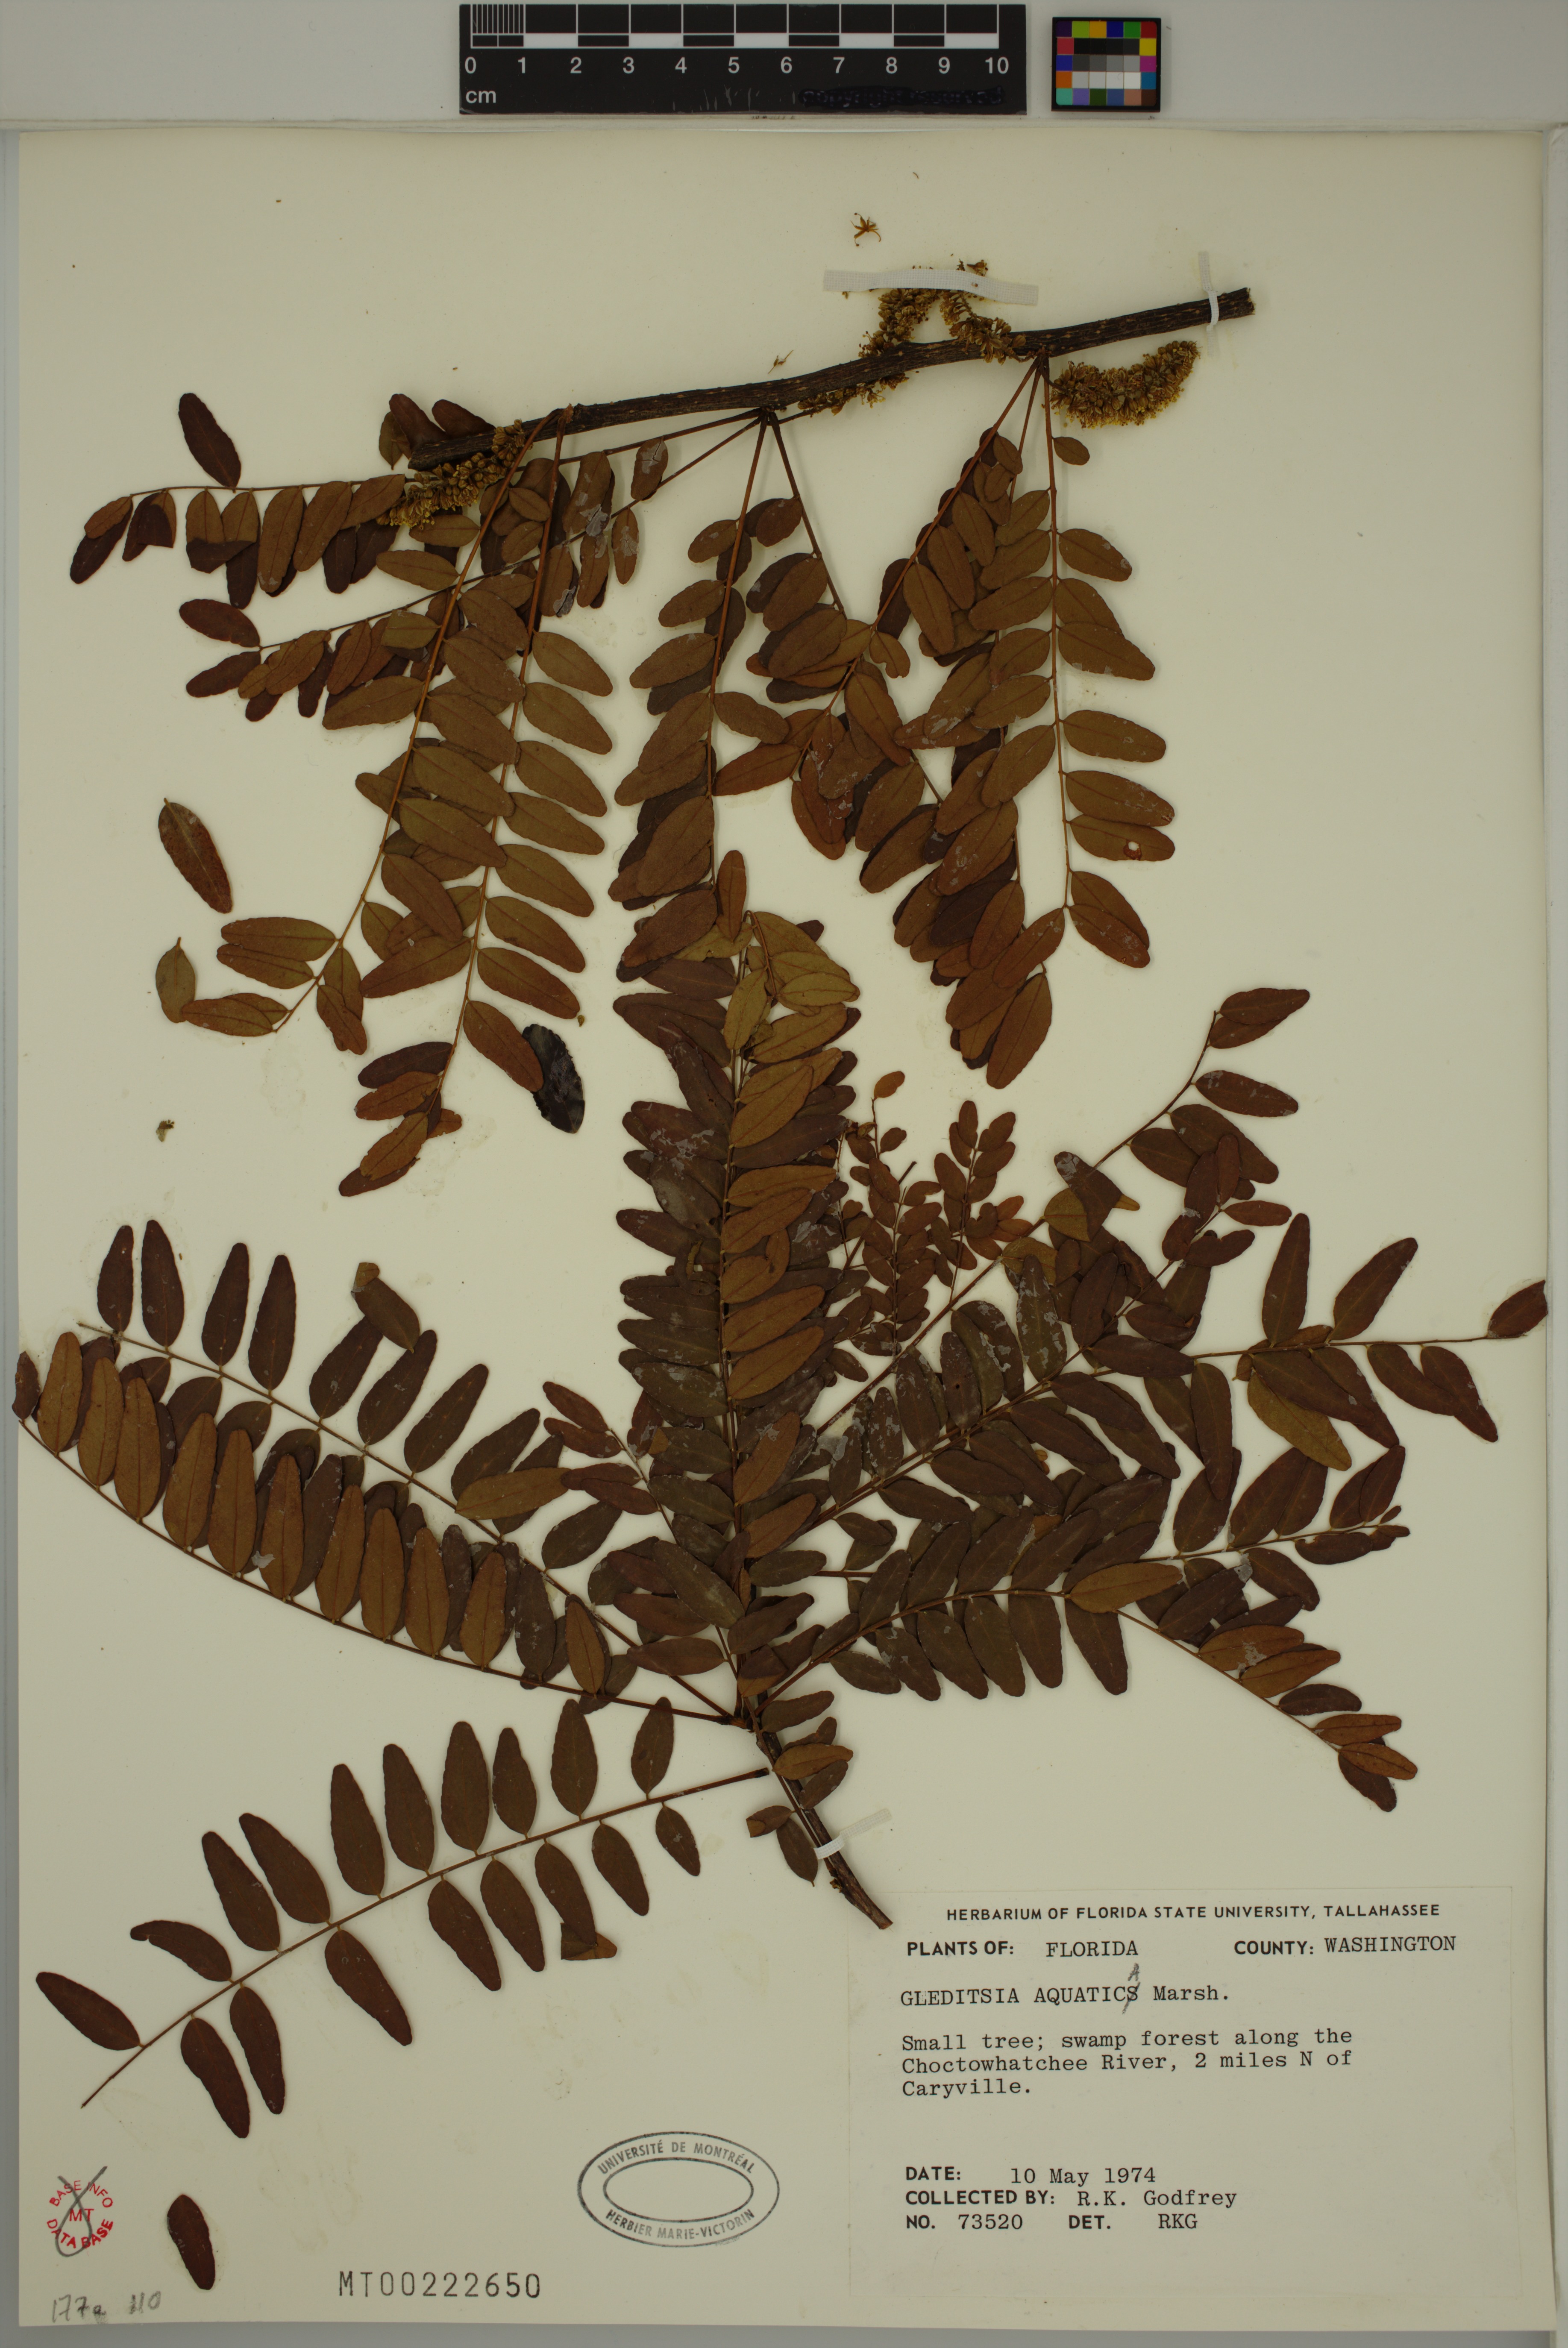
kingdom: Plantae
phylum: Tracheophyta
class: Magnoliopsida
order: Fabales
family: Fabaceae
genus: Gleditsia
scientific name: Gleditsia aquatica
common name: Swamp-locust
